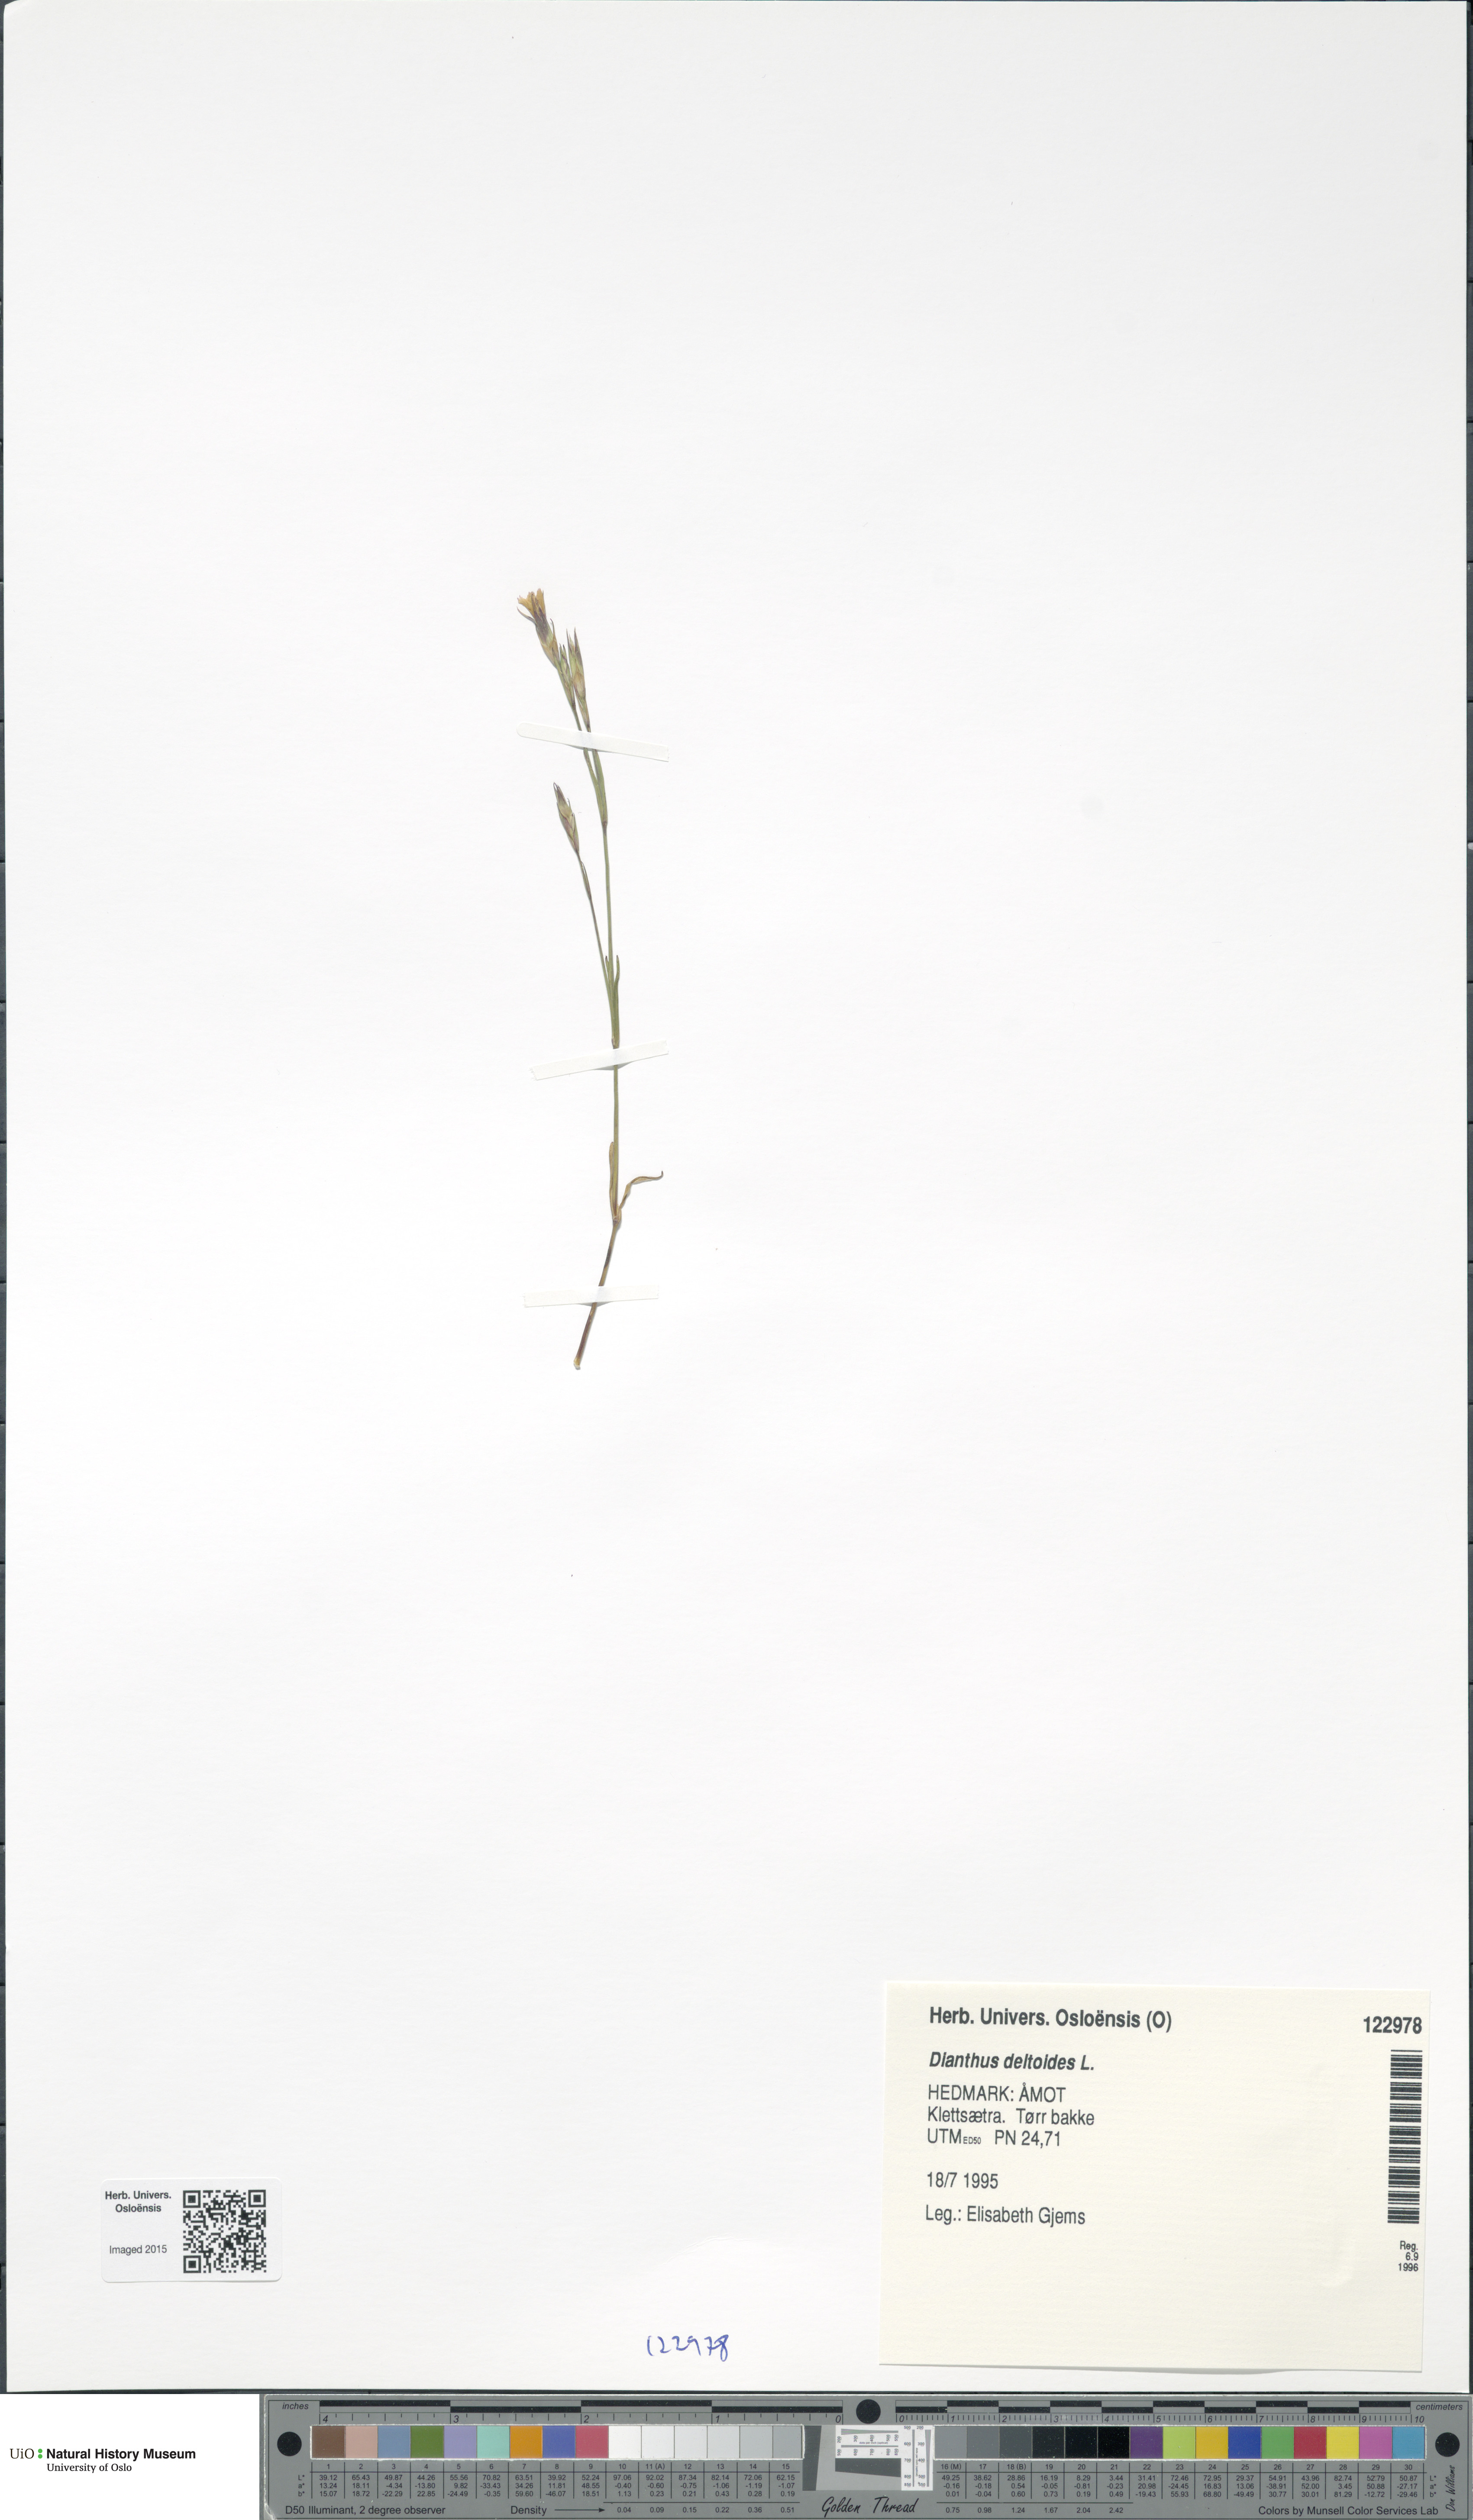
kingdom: Plantae
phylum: Tracheophyta
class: Magnoliopsida
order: Caryophyllales
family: Caryophyllaceae
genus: Dianthus
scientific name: Dianthus deltoides
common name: Maiden pink
